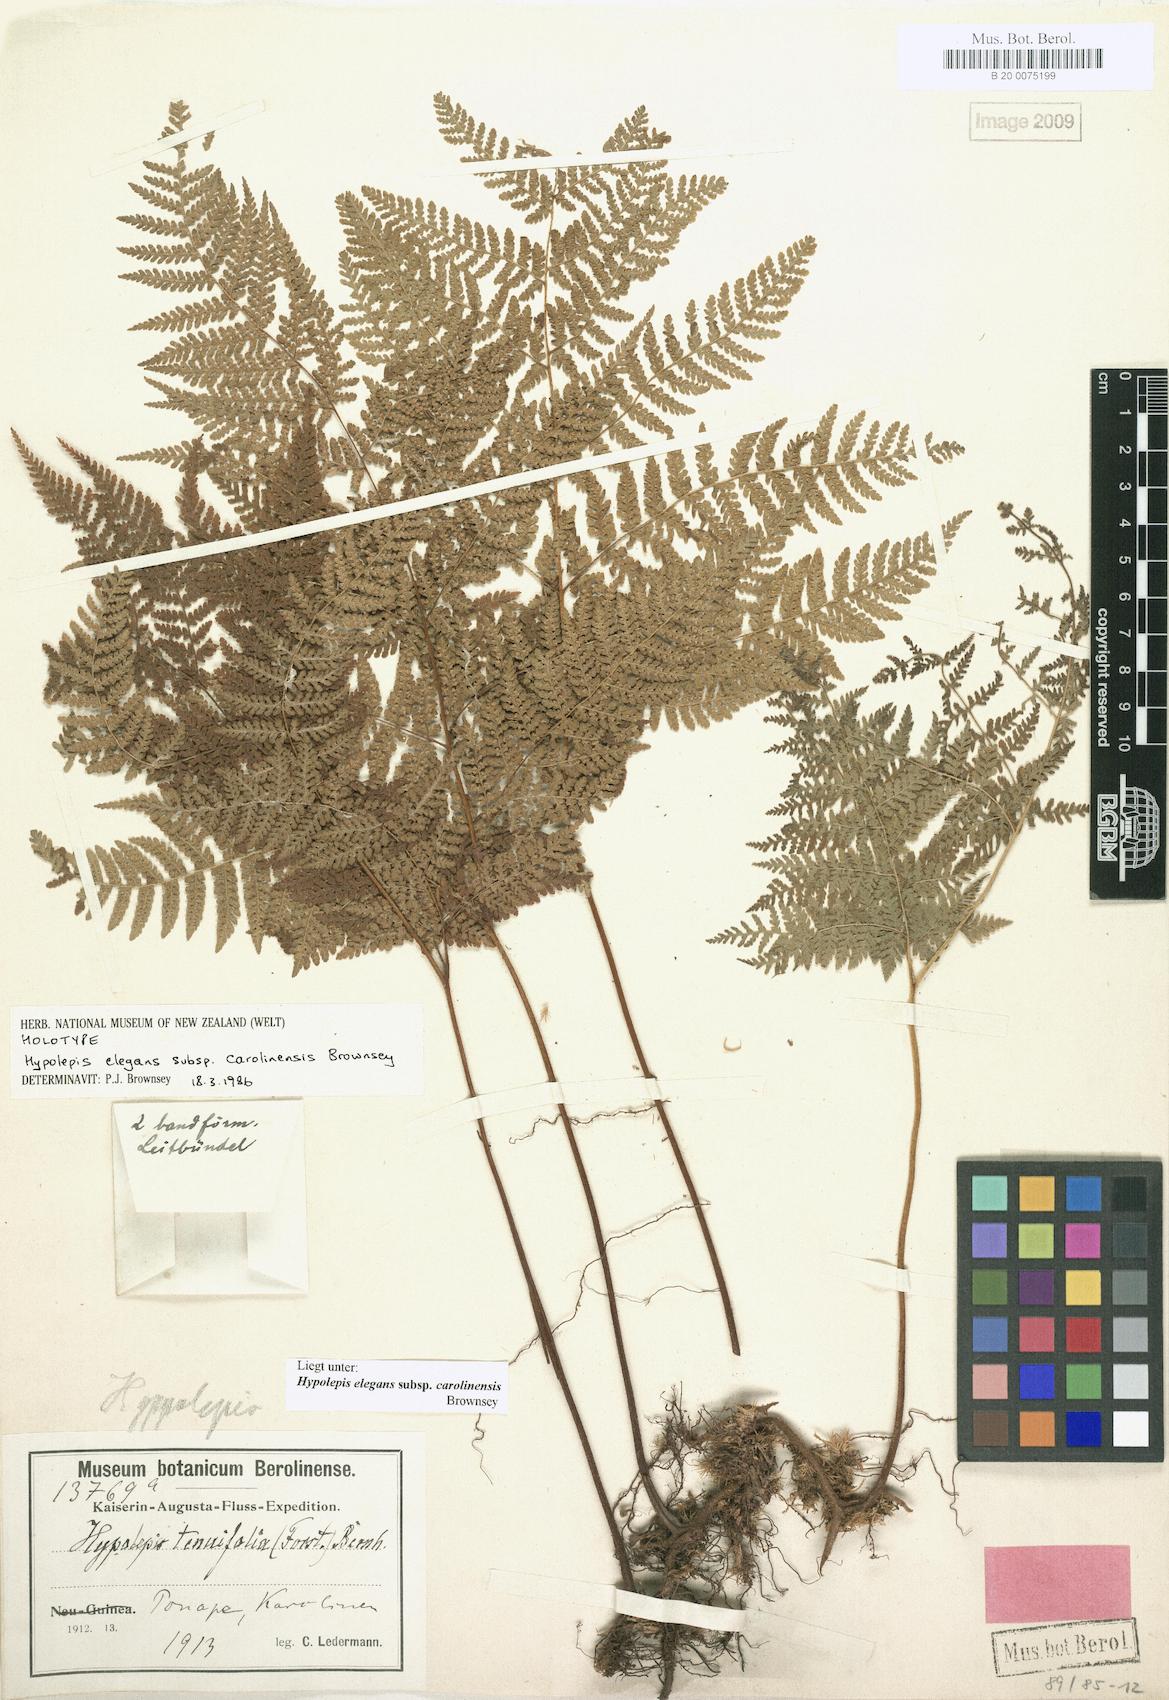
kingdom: Plantae
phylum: Tracheophyta
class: Polypodiopsida
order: Polypodiales
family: Dennstaedtiaceae
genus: Hypolepis
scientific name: Hypolepis elegans
